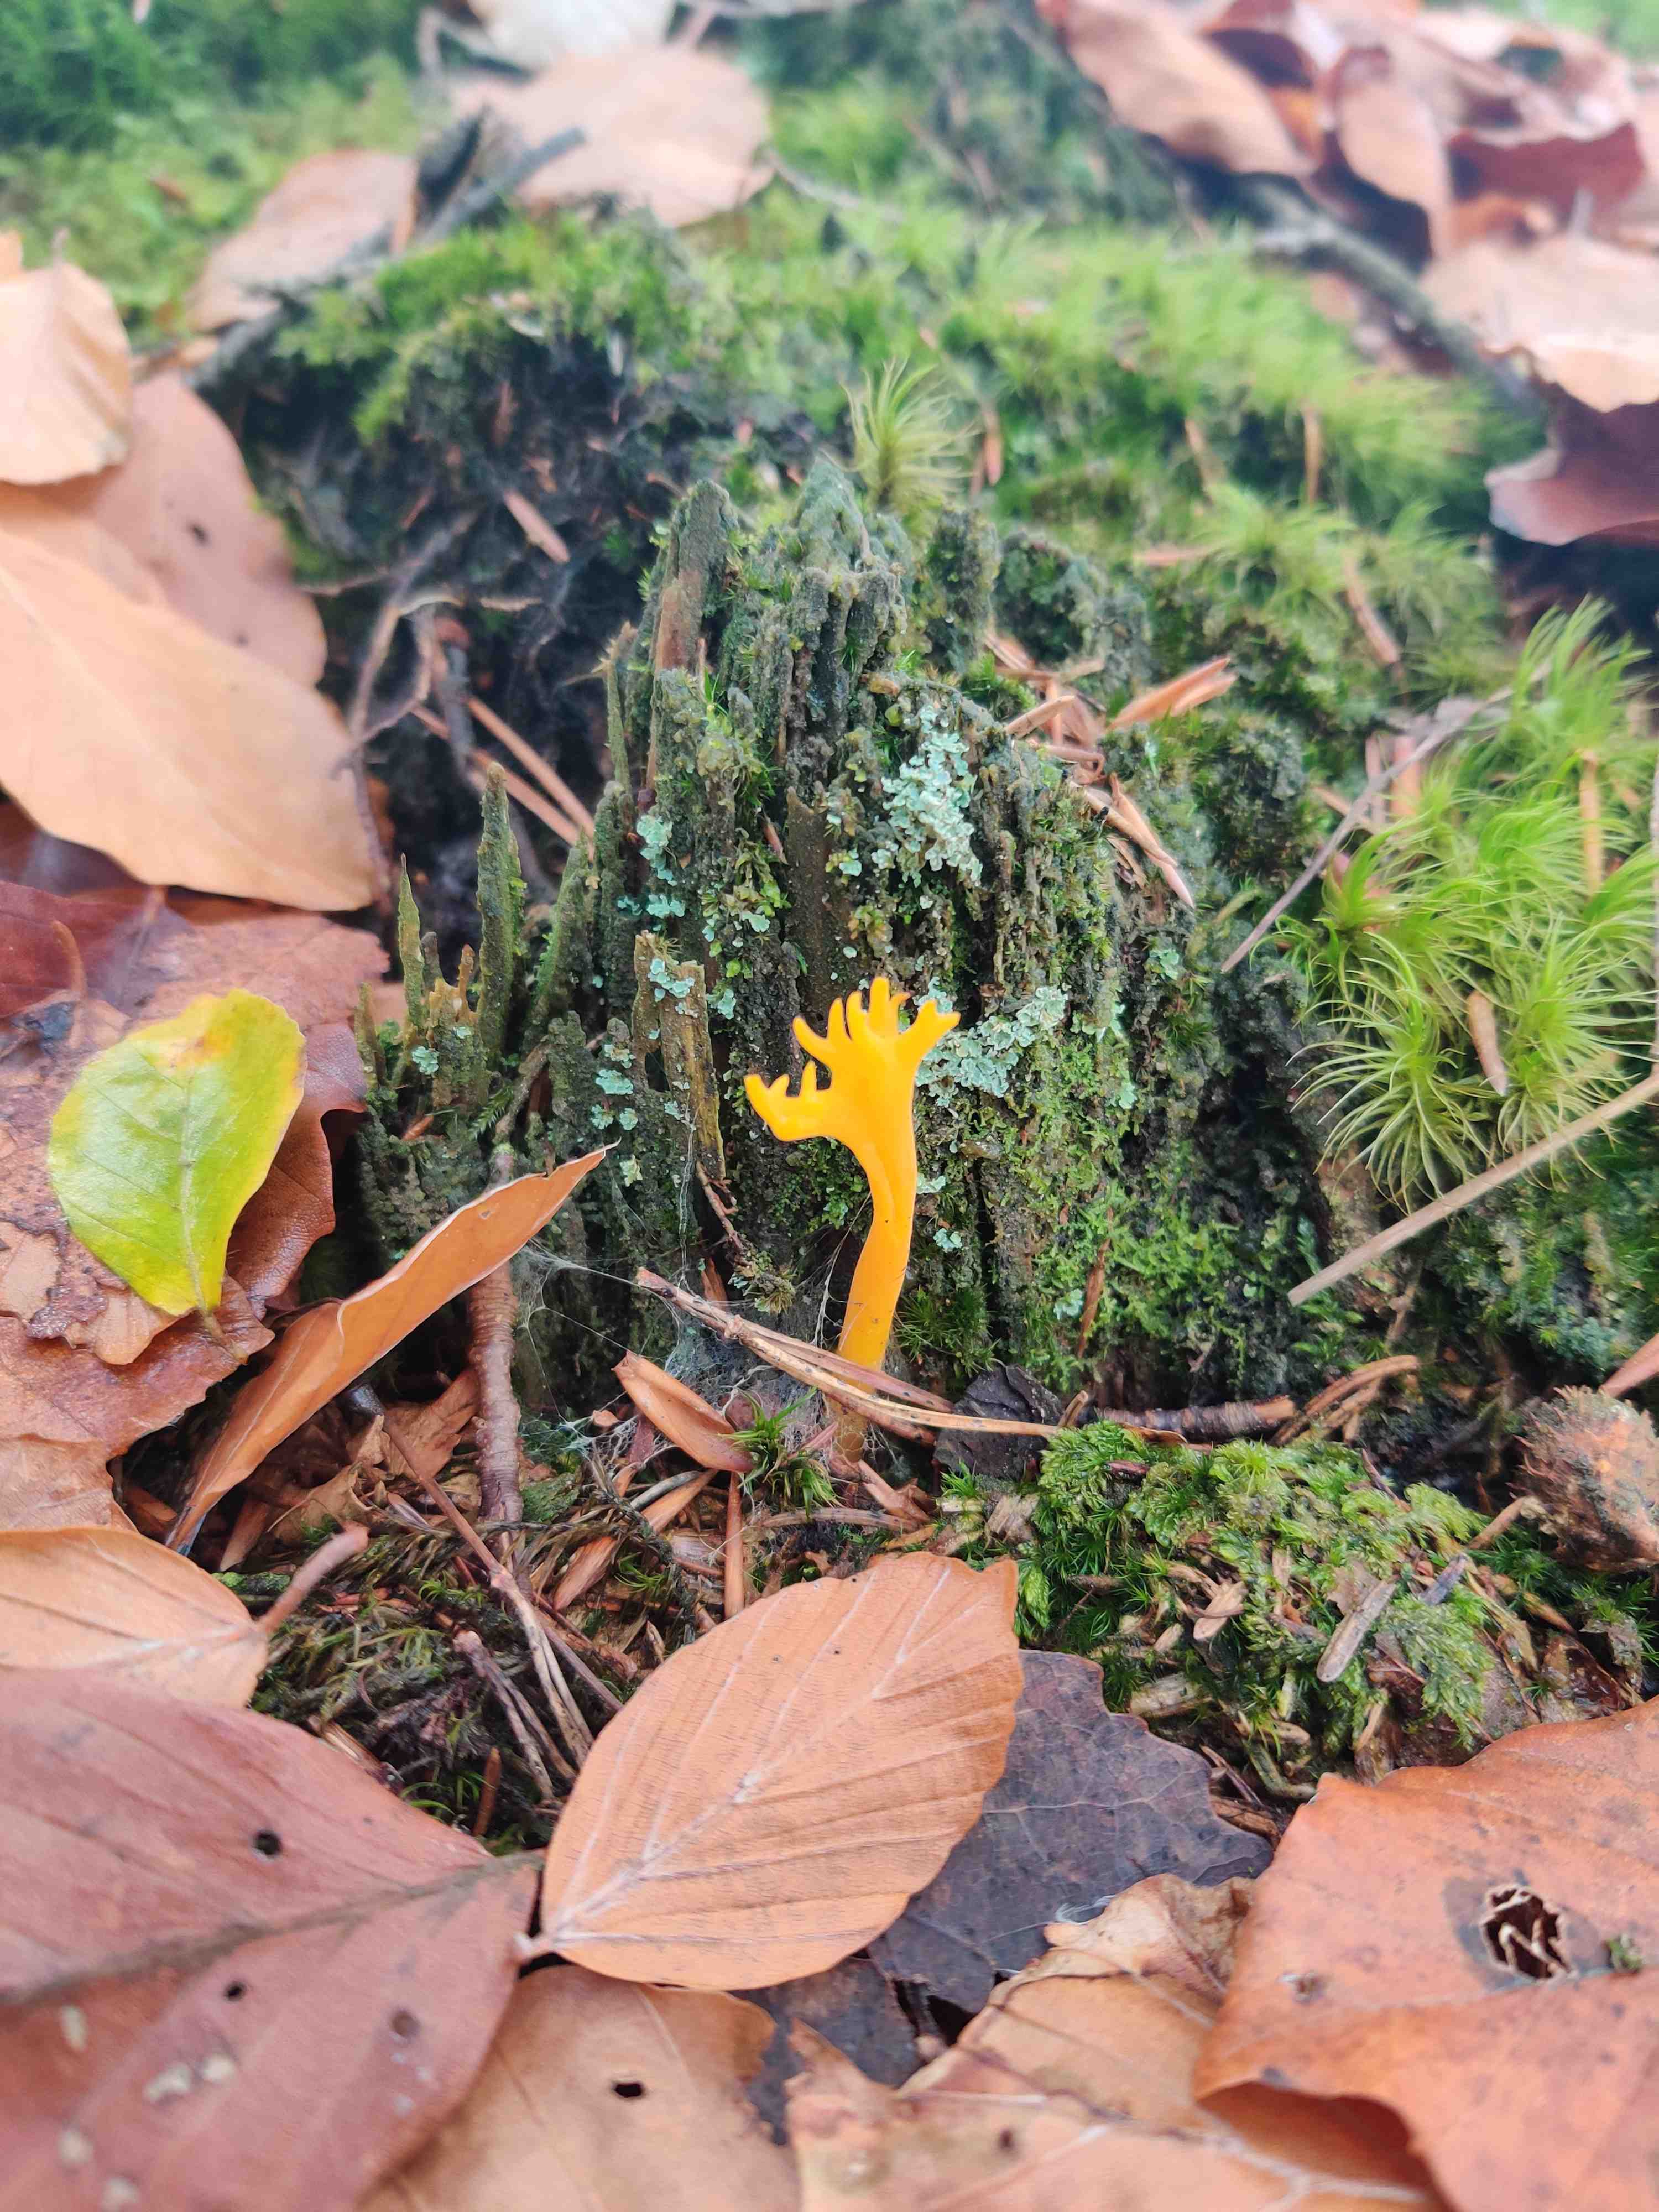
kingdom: Fungi
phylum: Basidiomycota
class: Dacrymycetes
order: Dacrymycetales
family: Dacrymycetaceae
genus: Calocera
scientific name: Calocera viscosa
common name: almindelig guldgaffel
